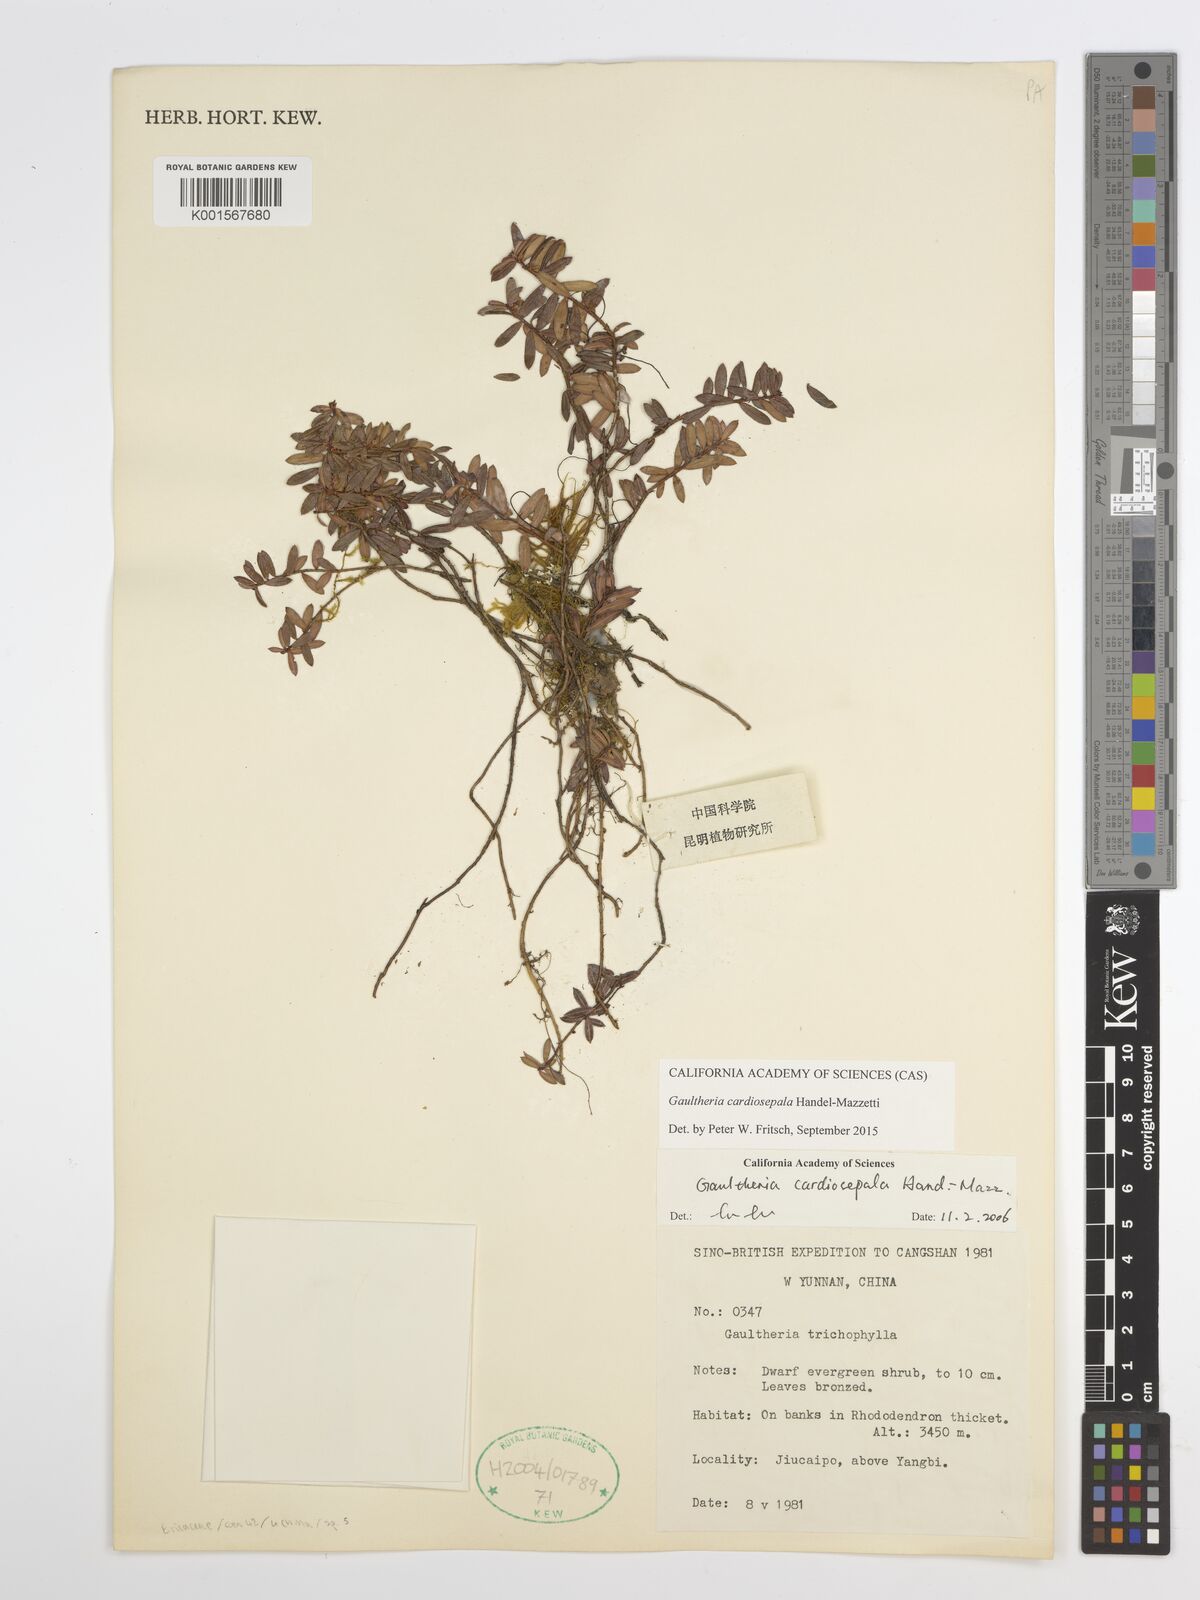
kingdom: Plantae
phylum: Tracheophyta
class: Magnoliopsida
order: Ericales
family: Ericaceae
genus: Gaultheria
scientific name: Gaultheria cardiosepala
